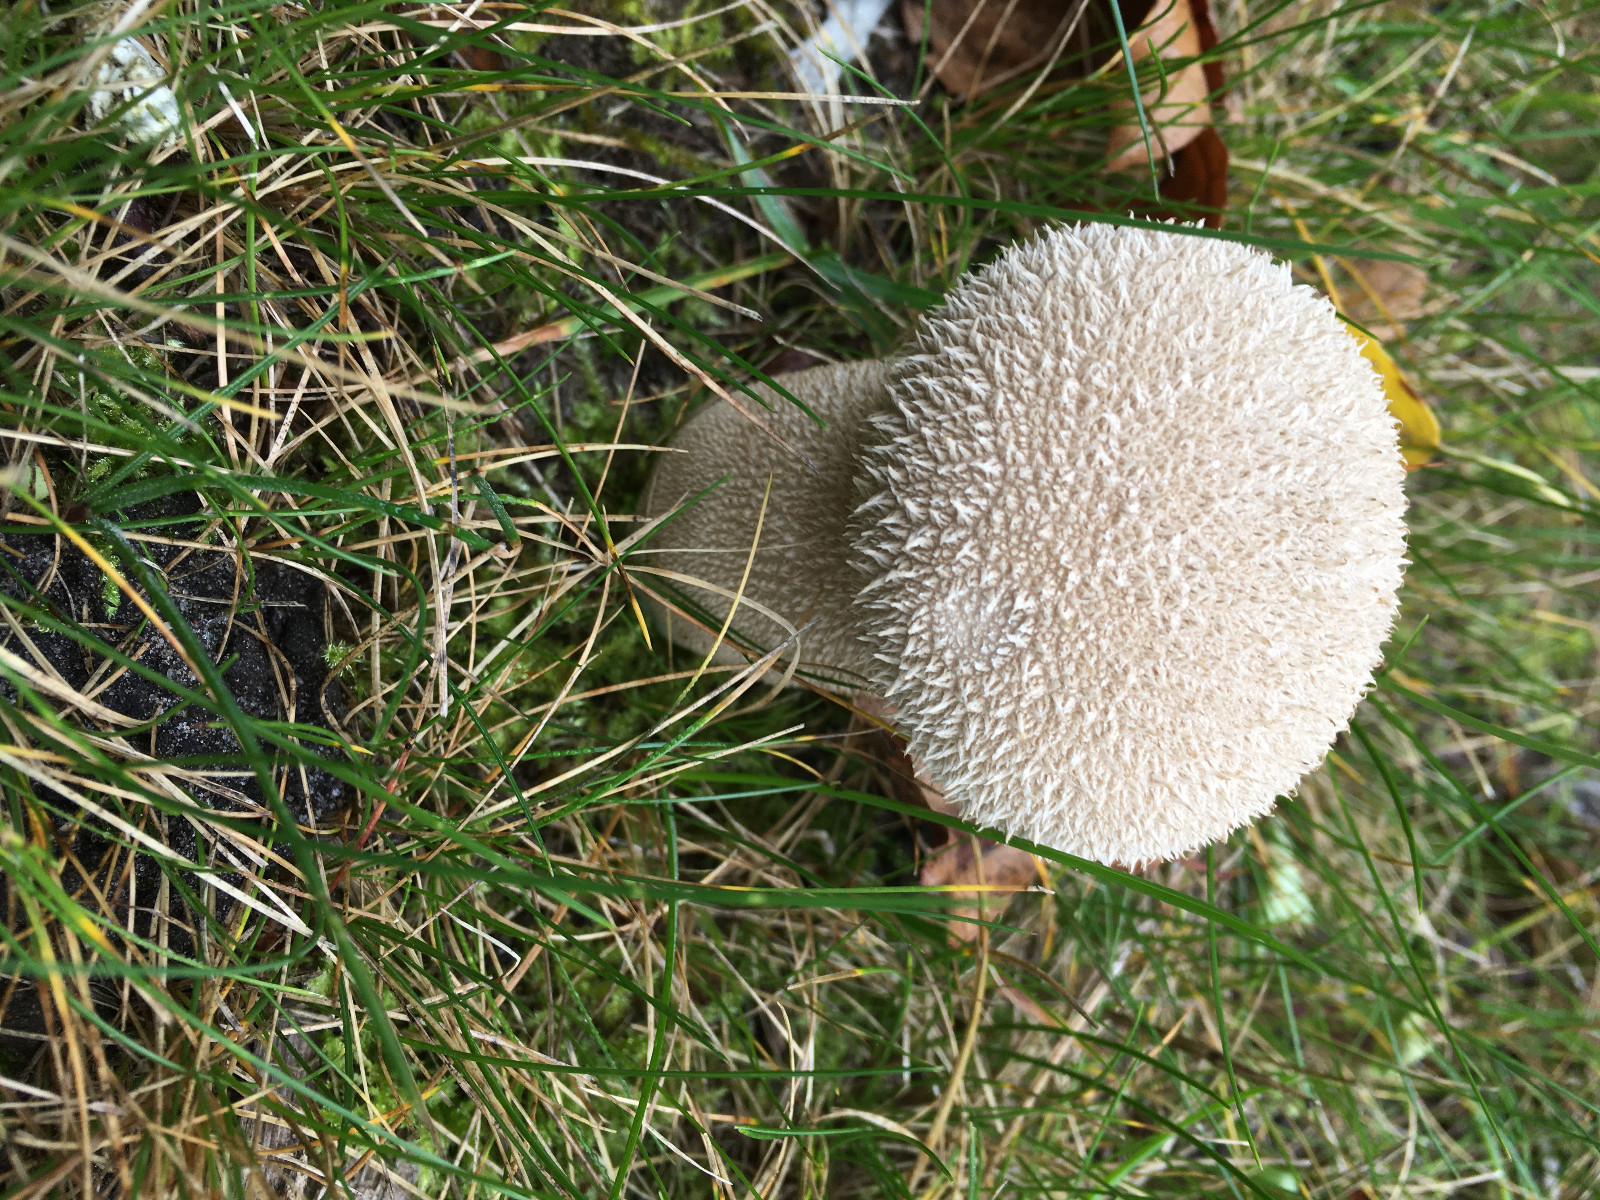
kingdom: Fungi
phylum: Basidiomycota
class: Agaricomycetes
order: Agaricales
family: Lycoperdaceae
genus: Lycoperdon
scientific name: Lycoperdon perlatum
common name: krystal-støvbold
